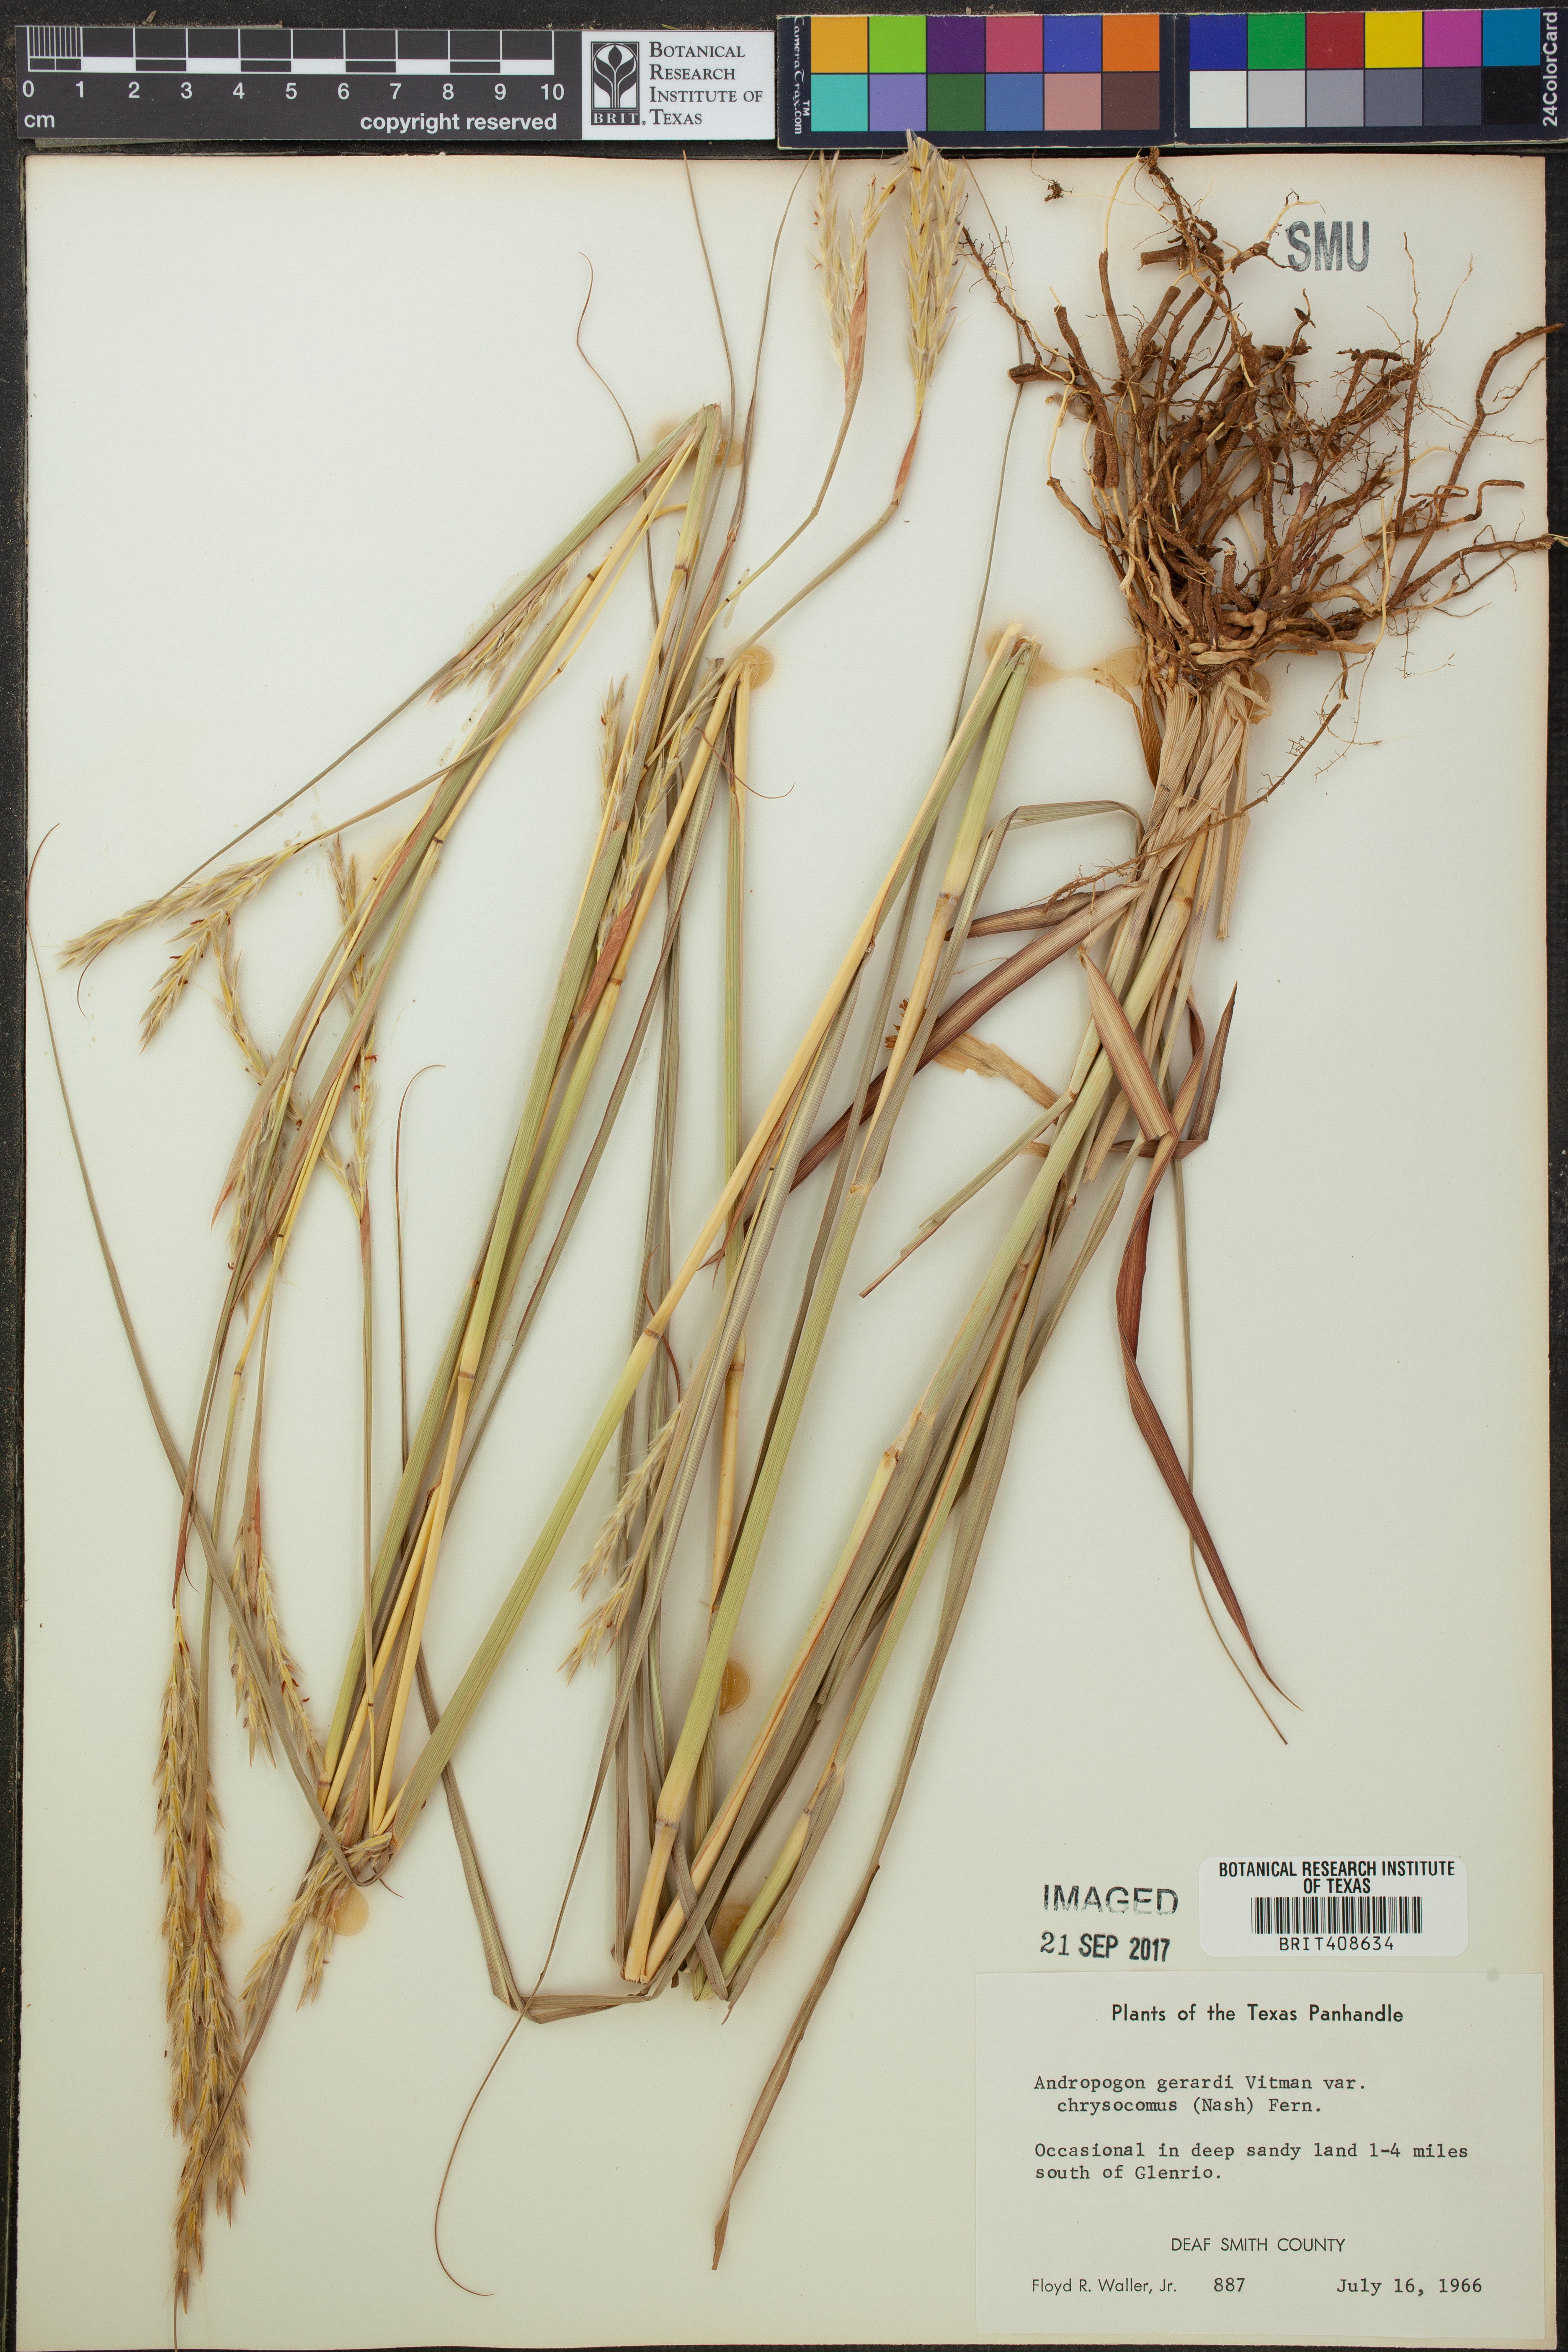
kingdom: Plantae
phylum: Tracheophyta
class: Liliopsida
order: Poales
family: Poaceae
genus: Andropogon
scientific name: Andropogon gerardi
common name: Big bluestem
